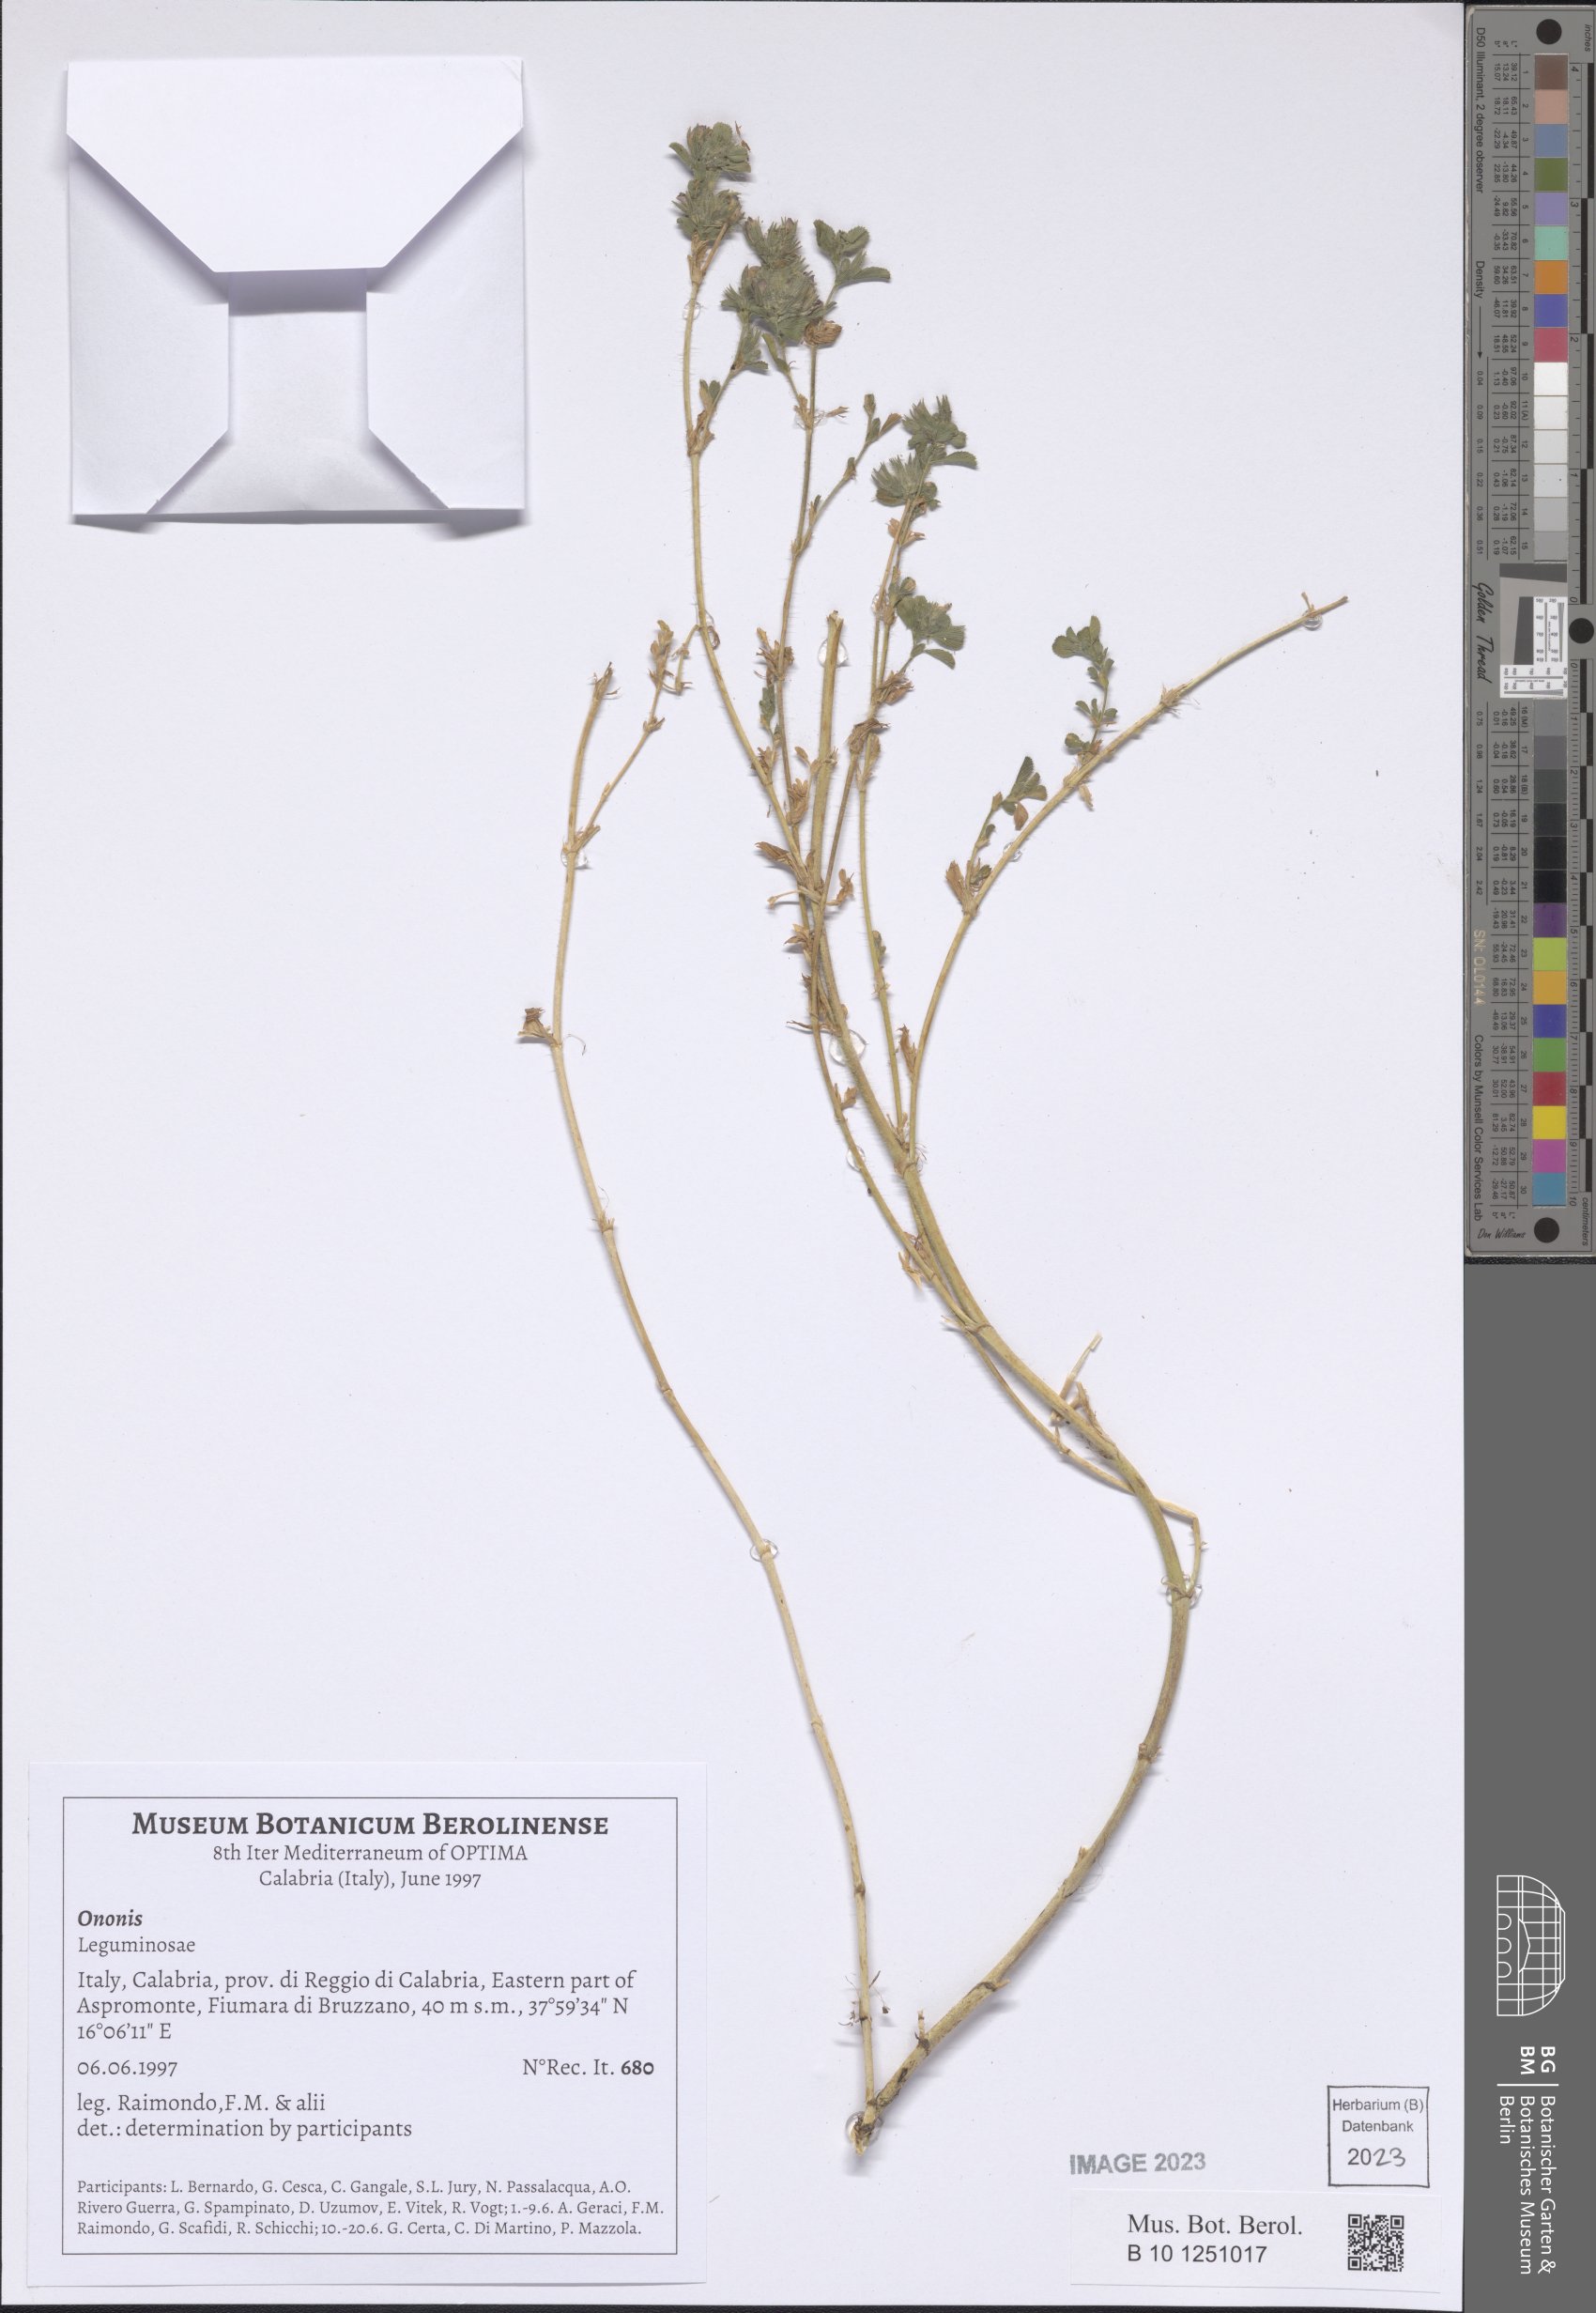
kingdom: Plantae
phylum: Tracheophyta
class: Magnoliopsida
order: Fabales
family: Fabaceae
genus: Ononis
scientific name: Ononis
